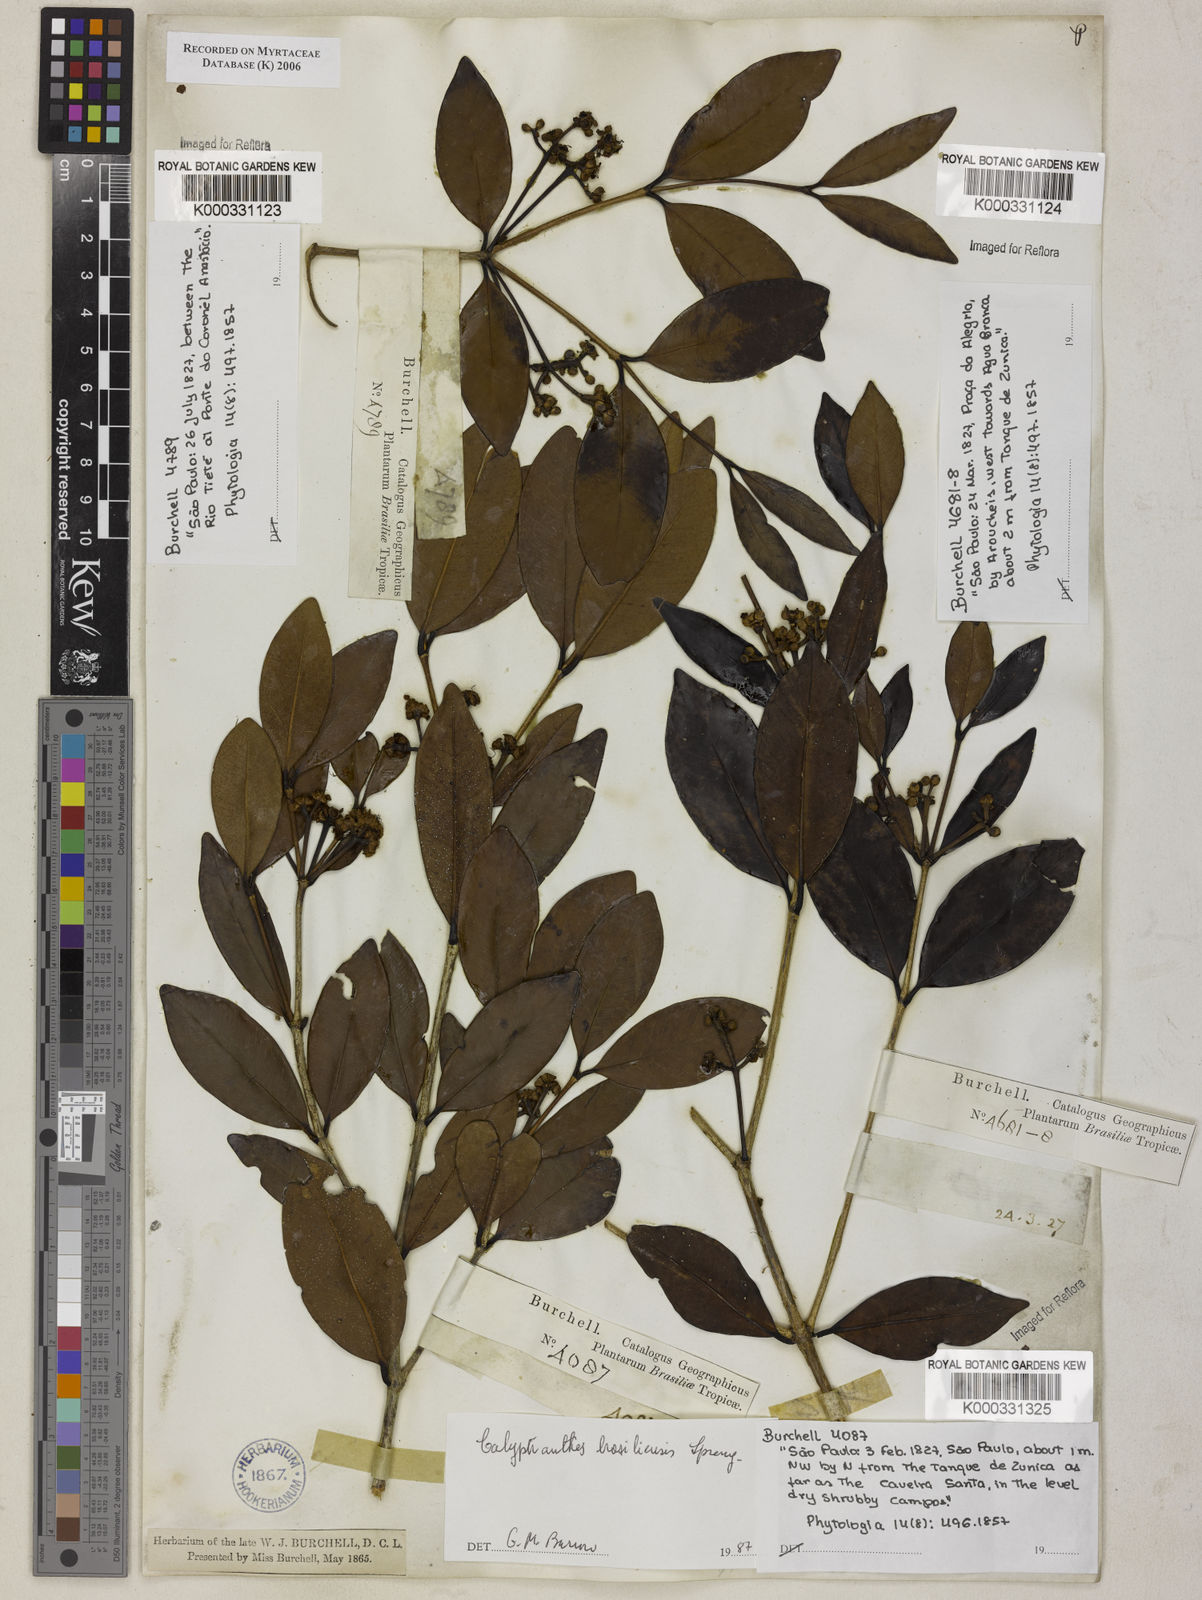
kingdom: Plantae
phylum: Tracheophyta
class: Magnoliopsida
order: Myrtales
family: Myrtaceae
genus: Myrcia
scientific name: Myrcia neobrasiliensis
